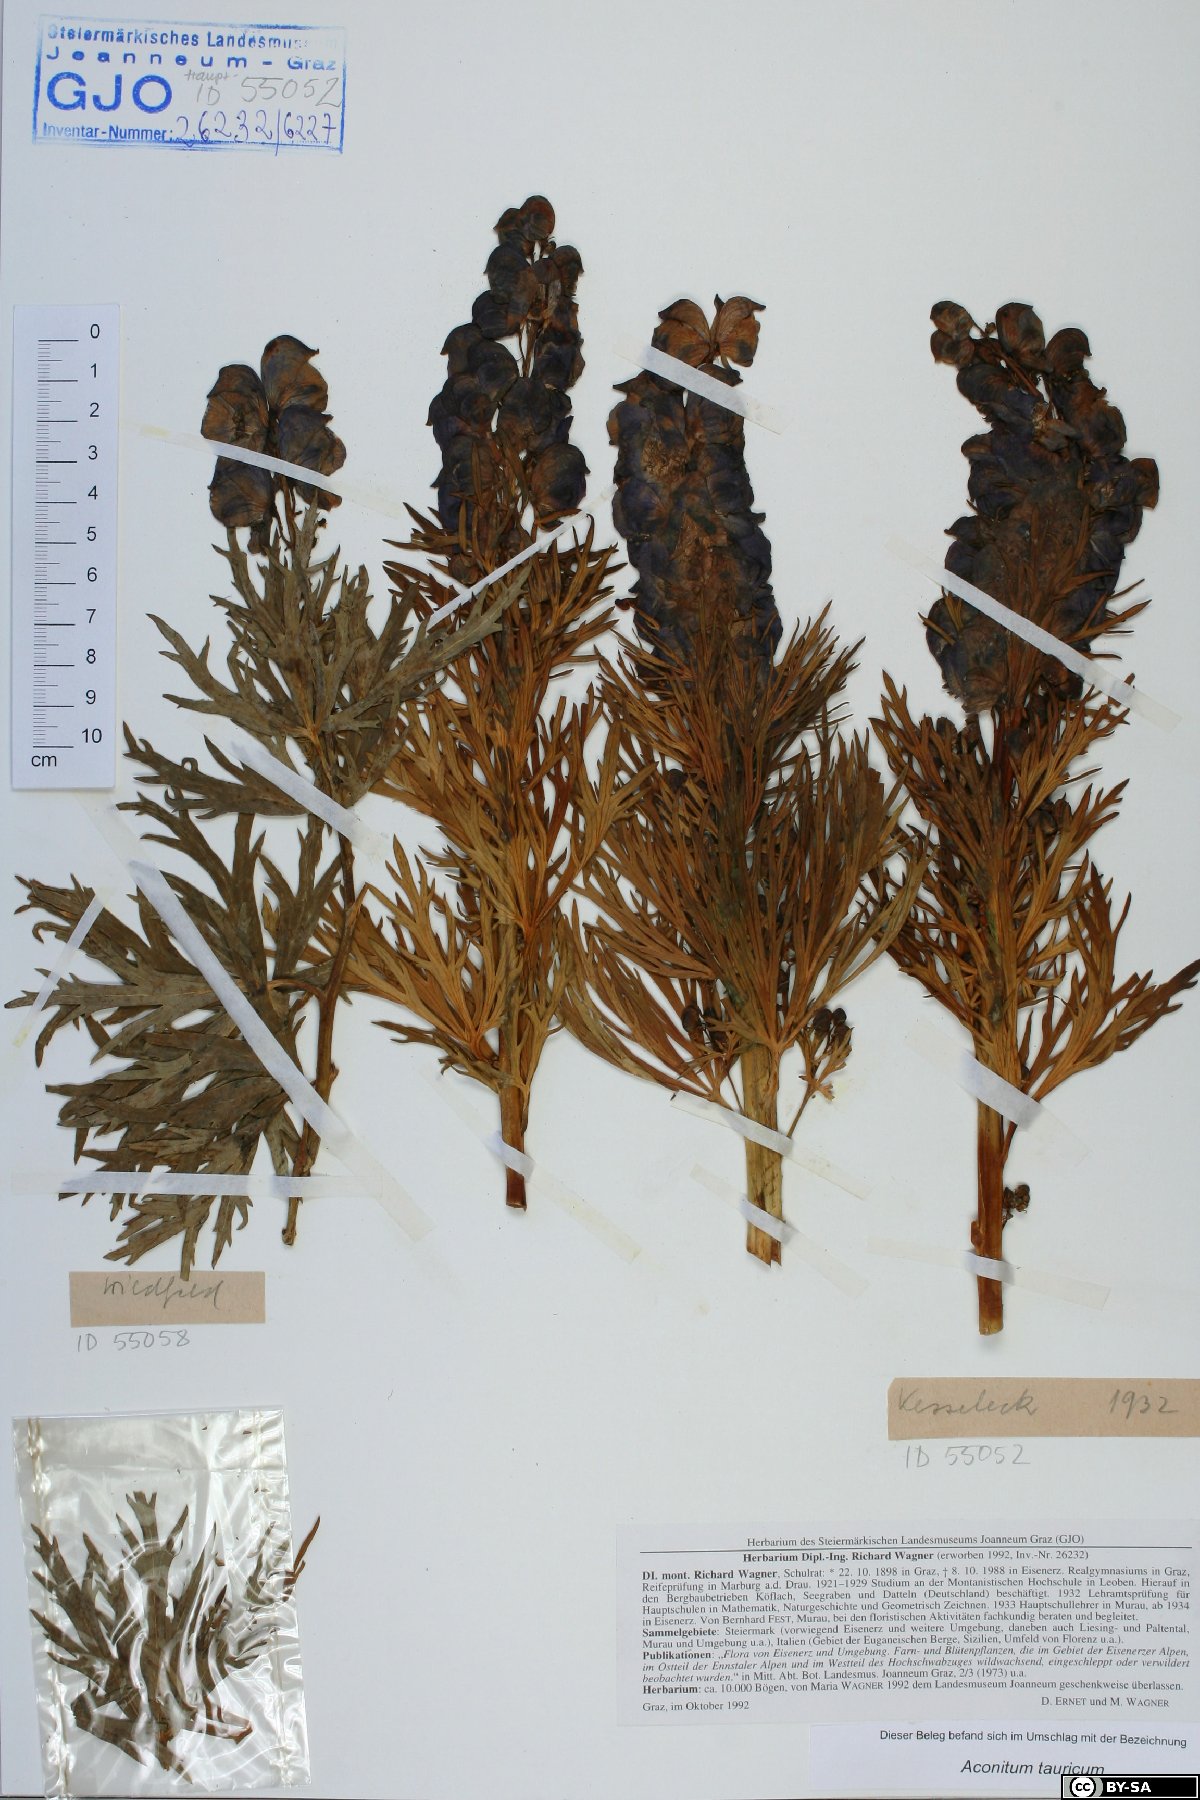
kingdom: Plantae
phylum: Tracheophyta
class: Magnoliopsida
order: Ranunculales
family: Ranunculaceae
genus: Aconitum
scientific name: Aconitum tauricum
